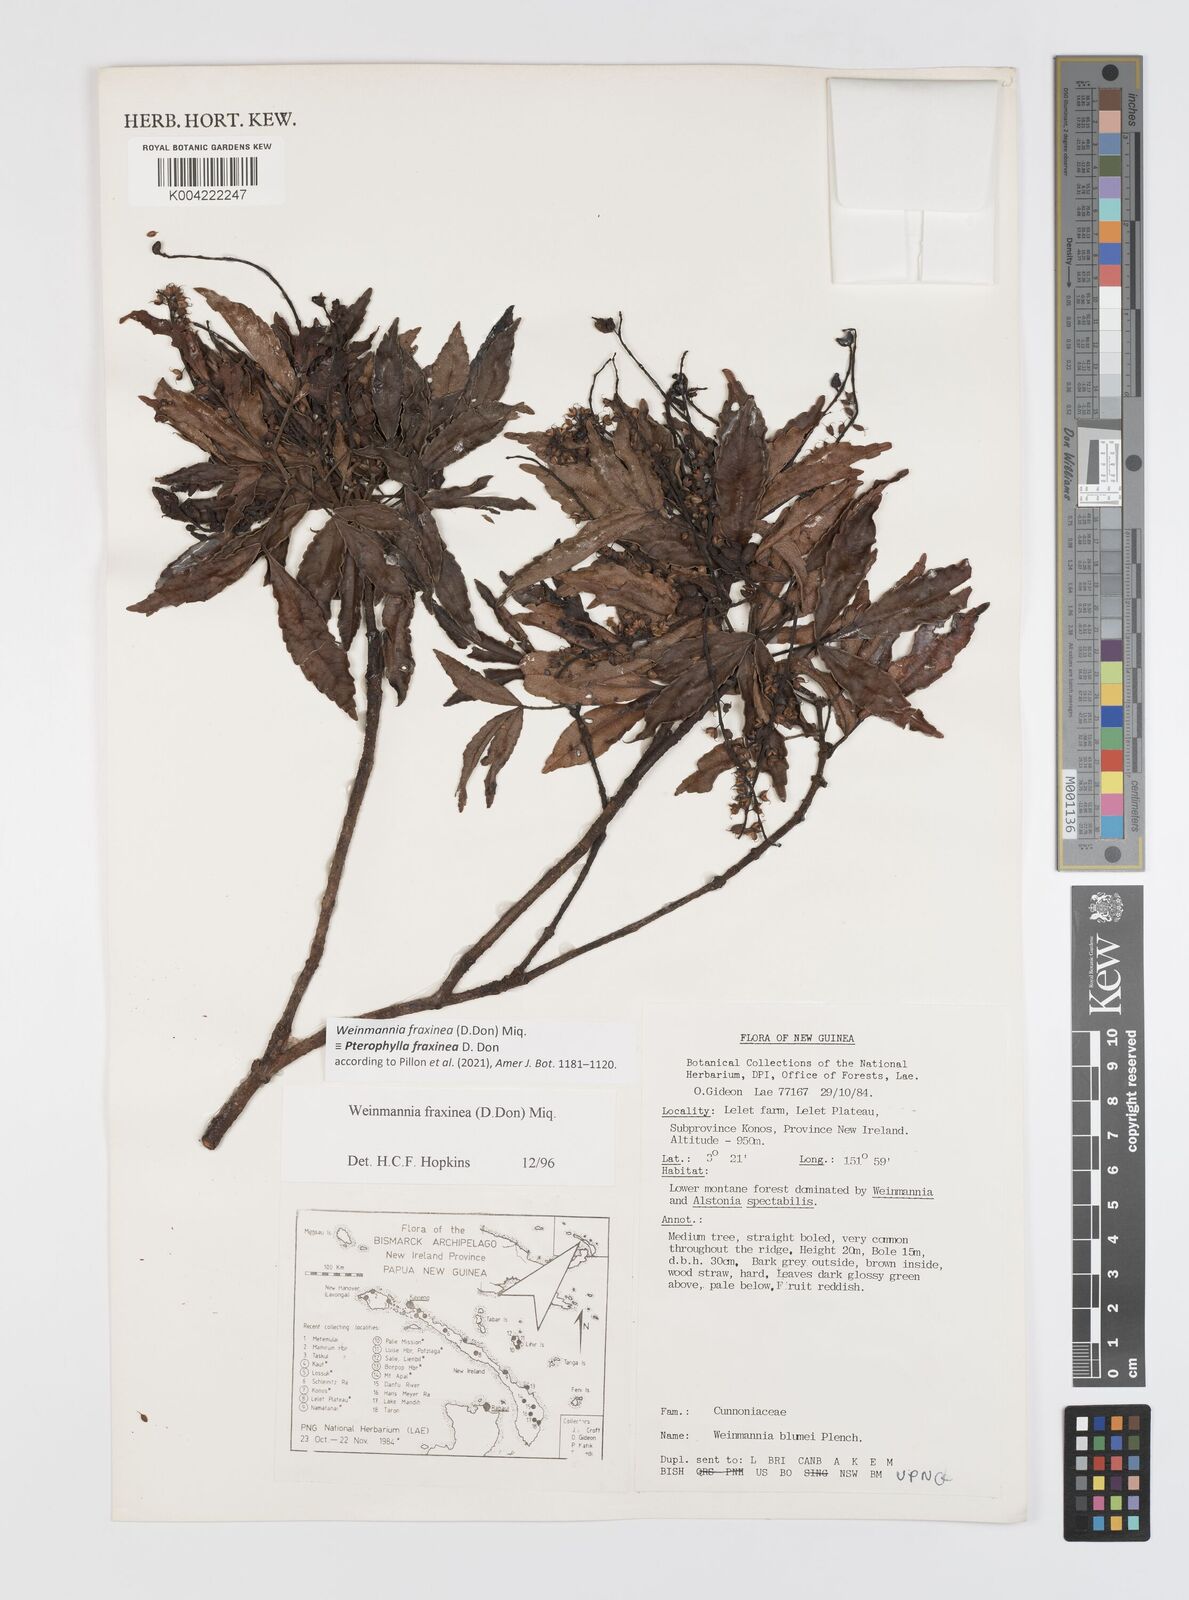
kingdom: Plantae
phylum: Tracheophyta
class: Magnoliopsida
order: Oxalidales
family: Cunoniaceae
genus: Pterophylla
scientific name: Pterophylla fraxinea
